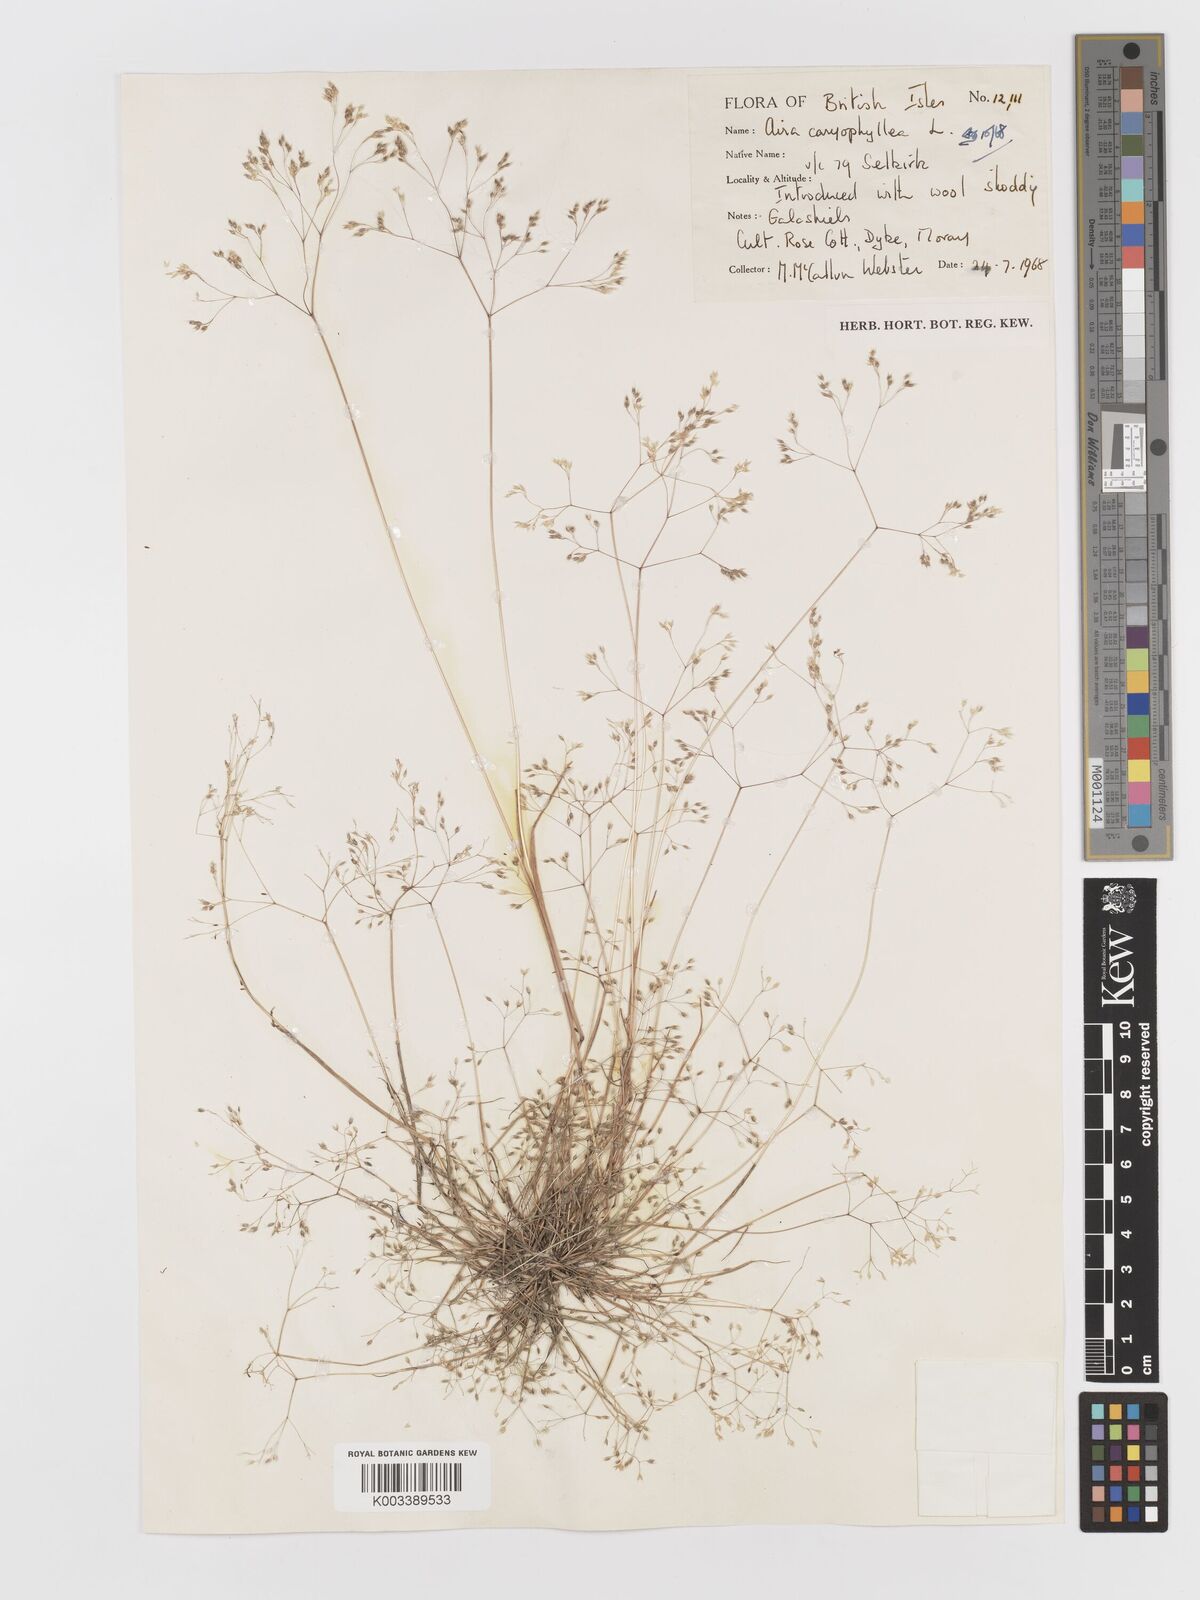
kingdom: Plantae
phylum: Tracheophyta
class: Liliopsida
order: Poales
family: Poaceae
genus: Aira
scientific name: Aira caryophyllea
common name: Silver hairgrass
